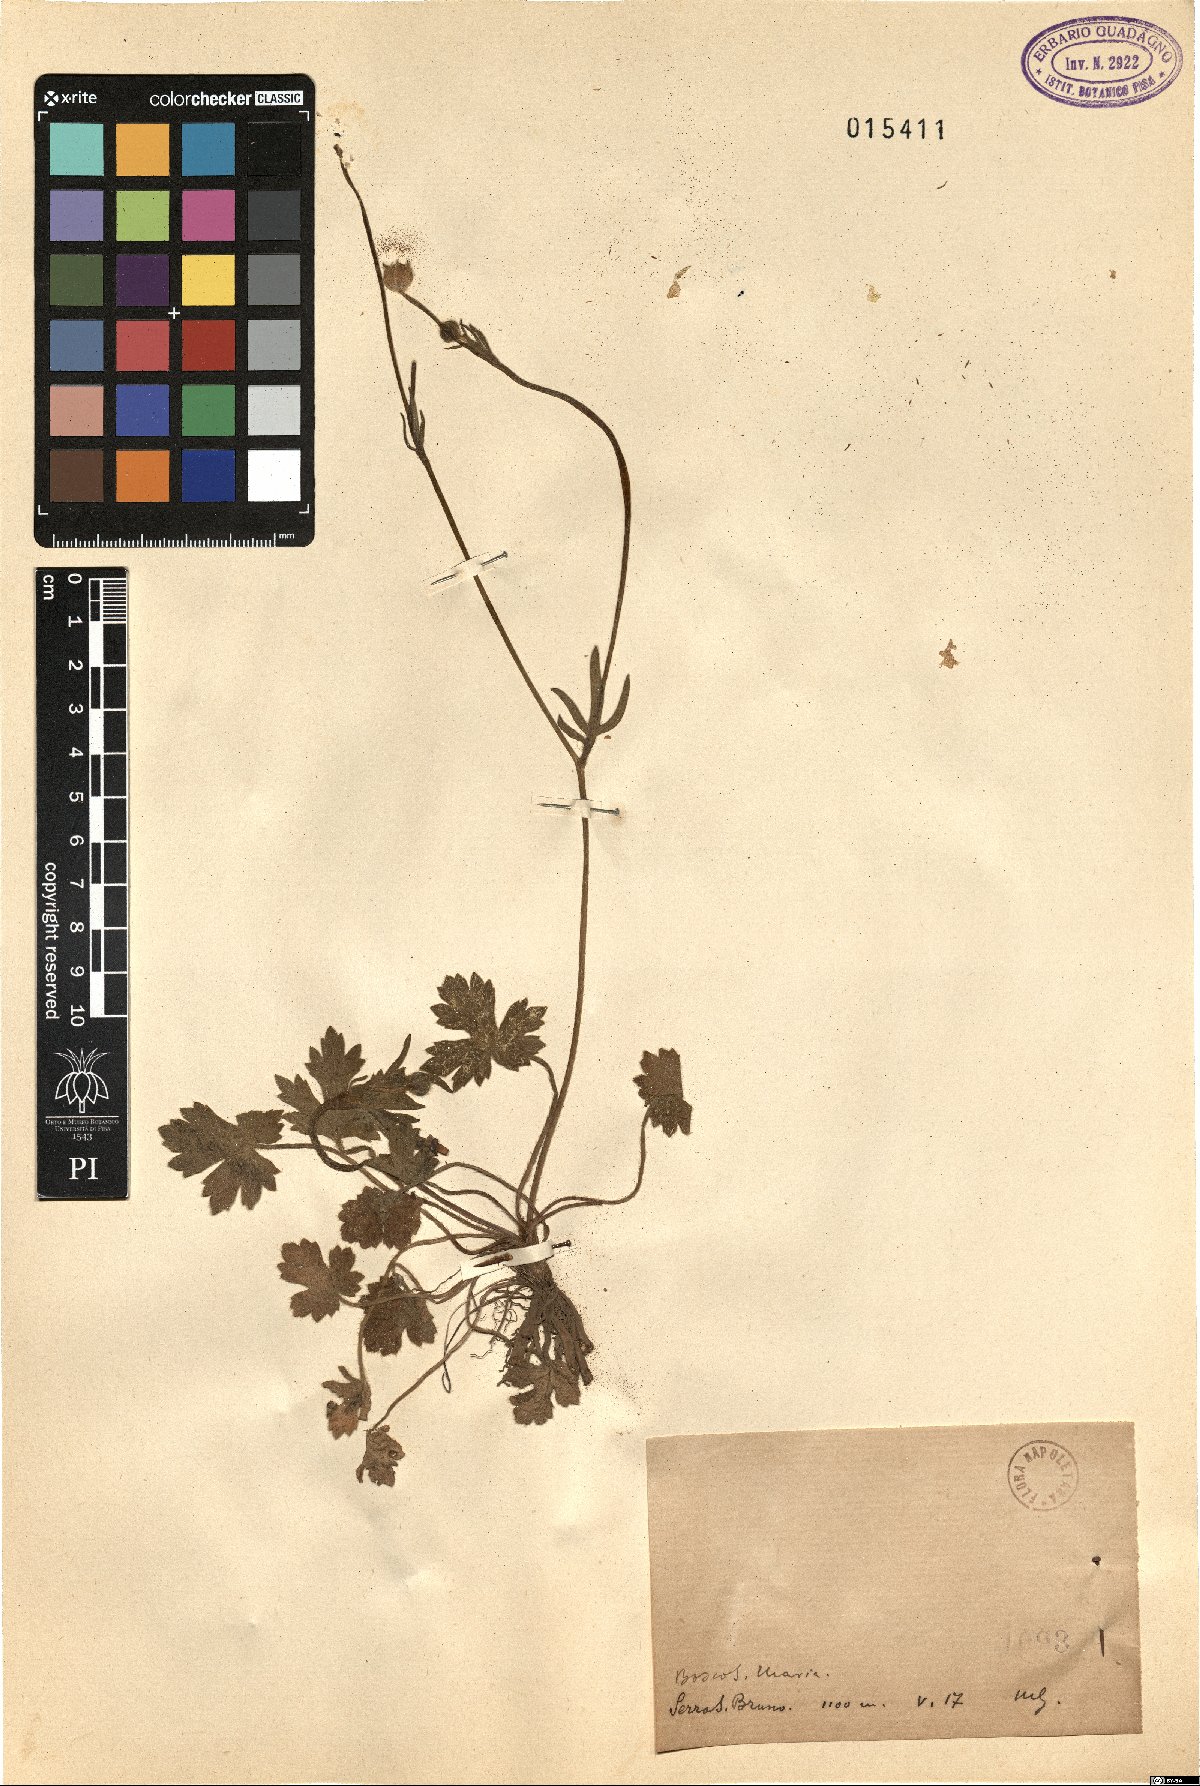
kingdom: Plantae
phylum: Tracheophyta
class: Magnoliopsida
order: Ranunculales
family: Ranunculaceae
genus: Ranunculus
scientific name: Ranunculus
